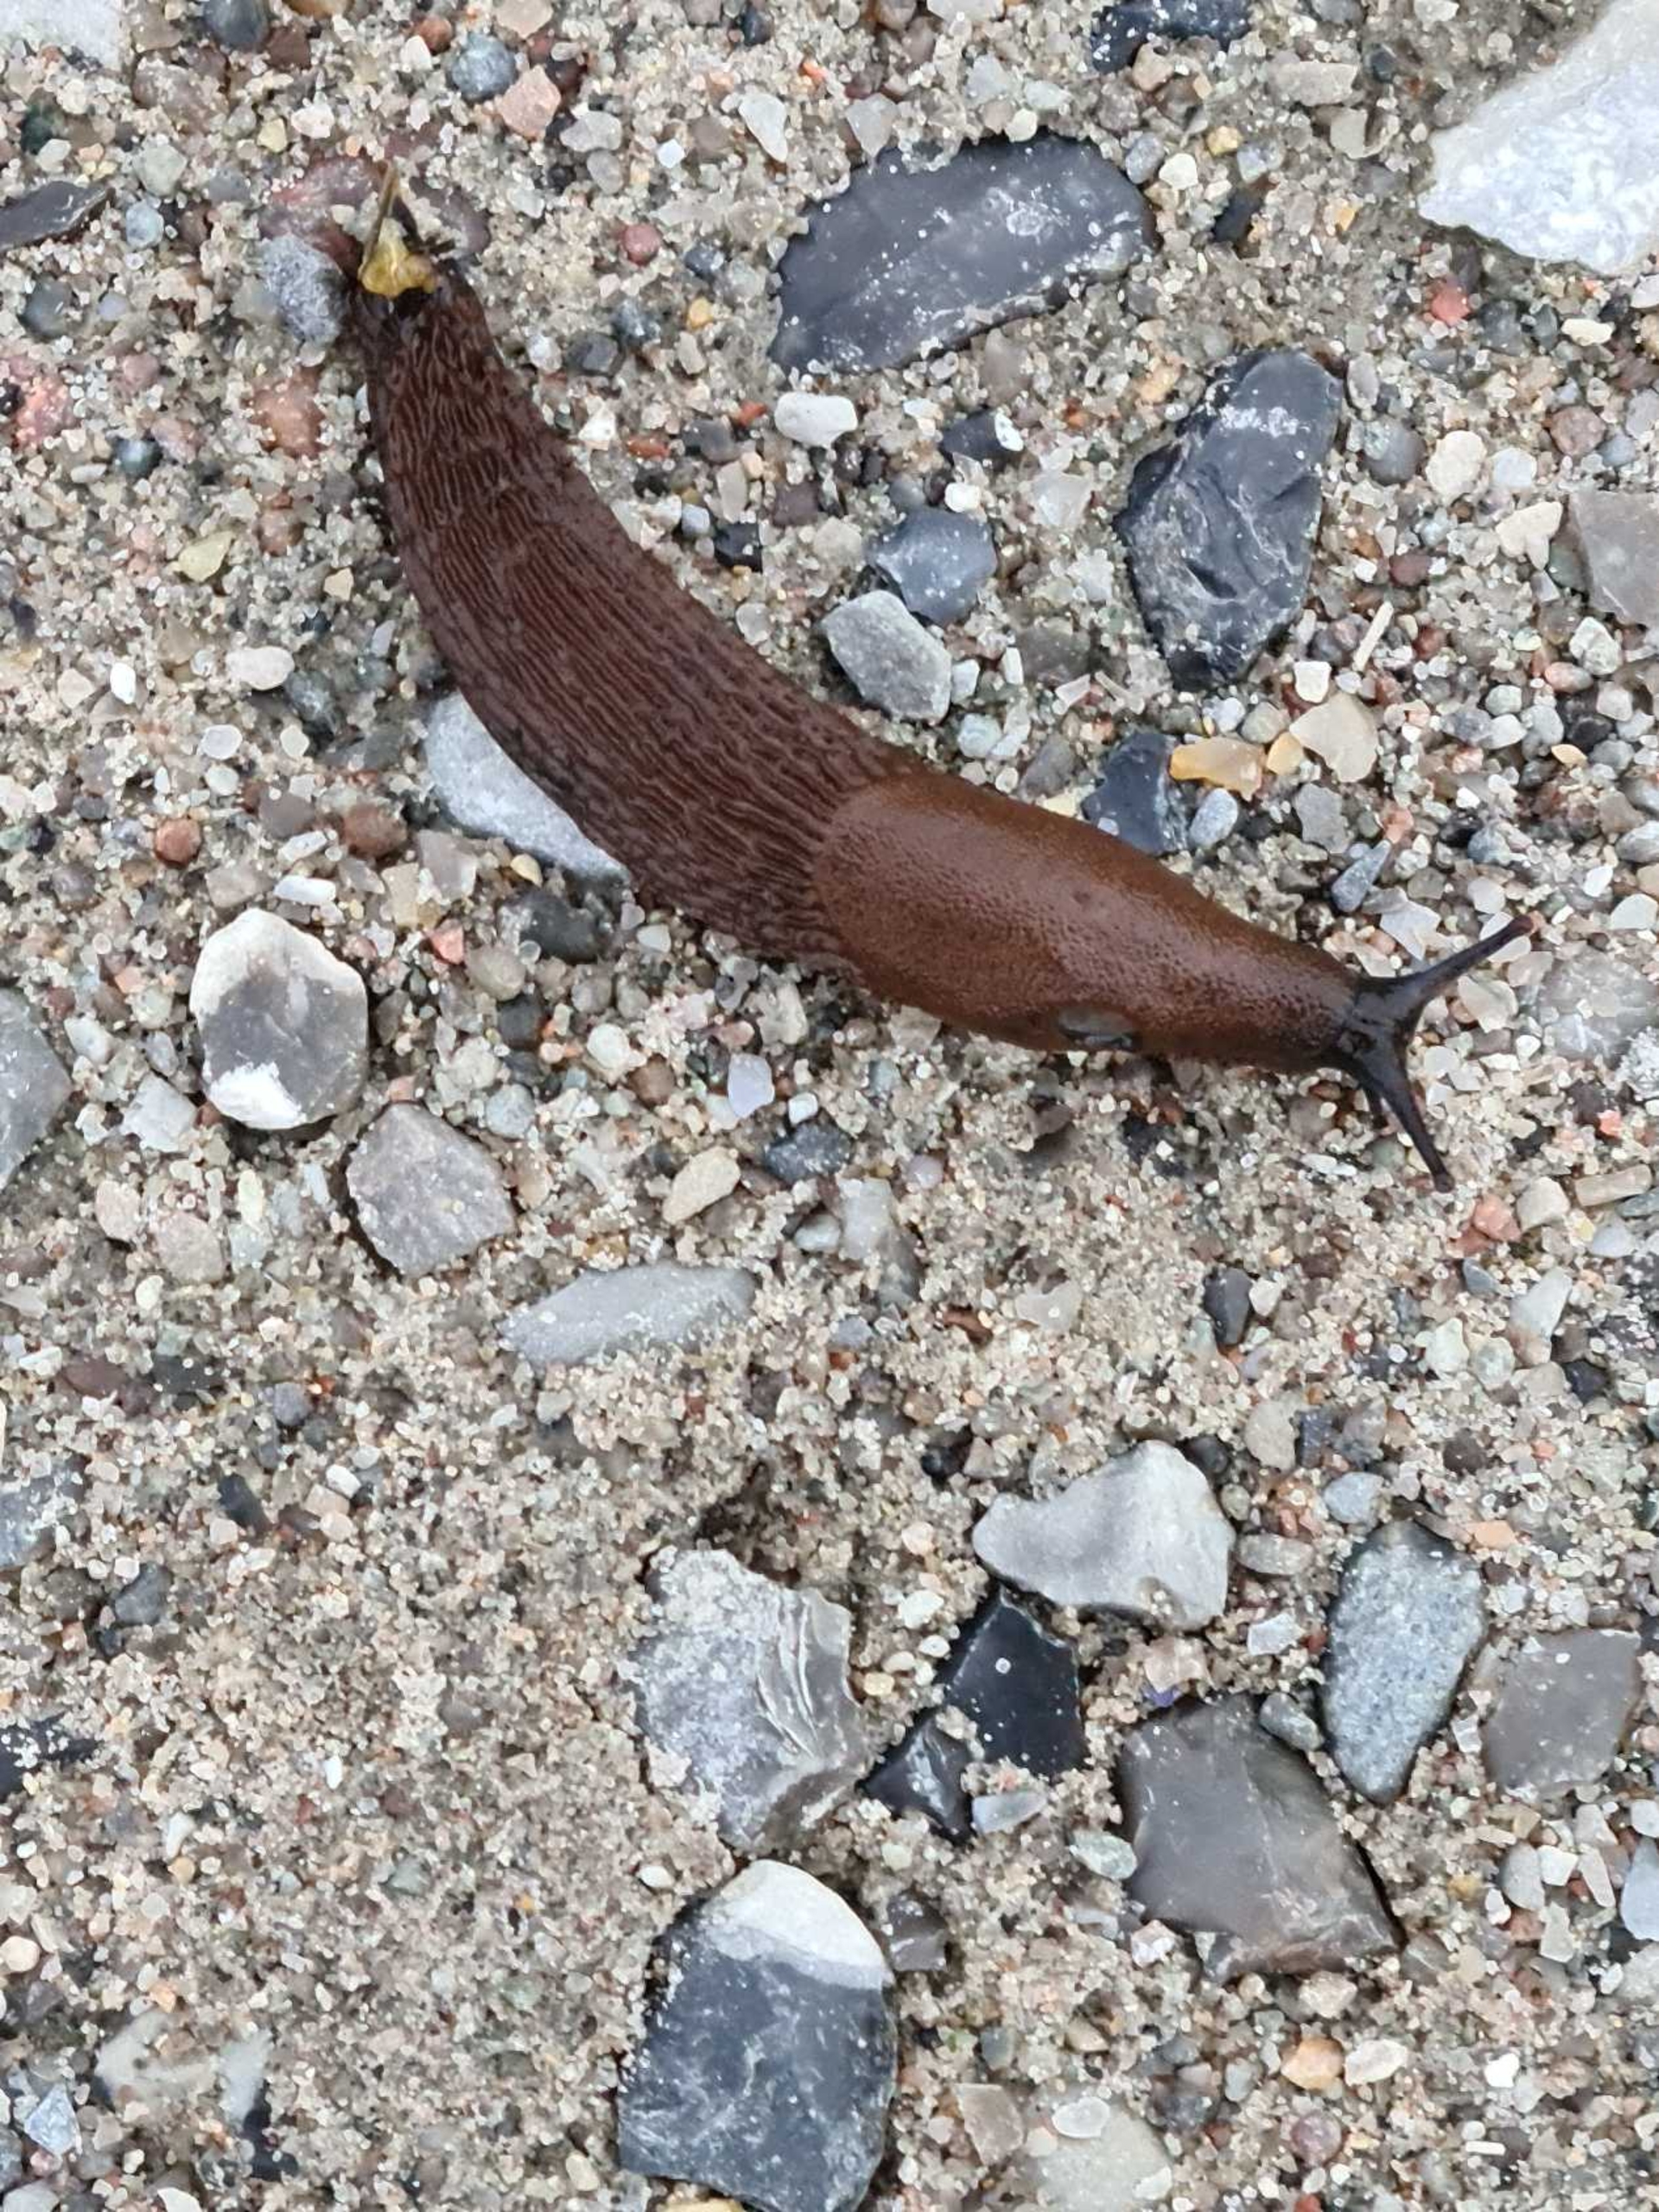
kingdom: Animalia
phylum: Mollusca
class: Gastropoda
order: Stylommatophora
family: Arionidae
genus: Arion
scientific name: Arion vulgaris
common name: Iberisk skovsnegl
